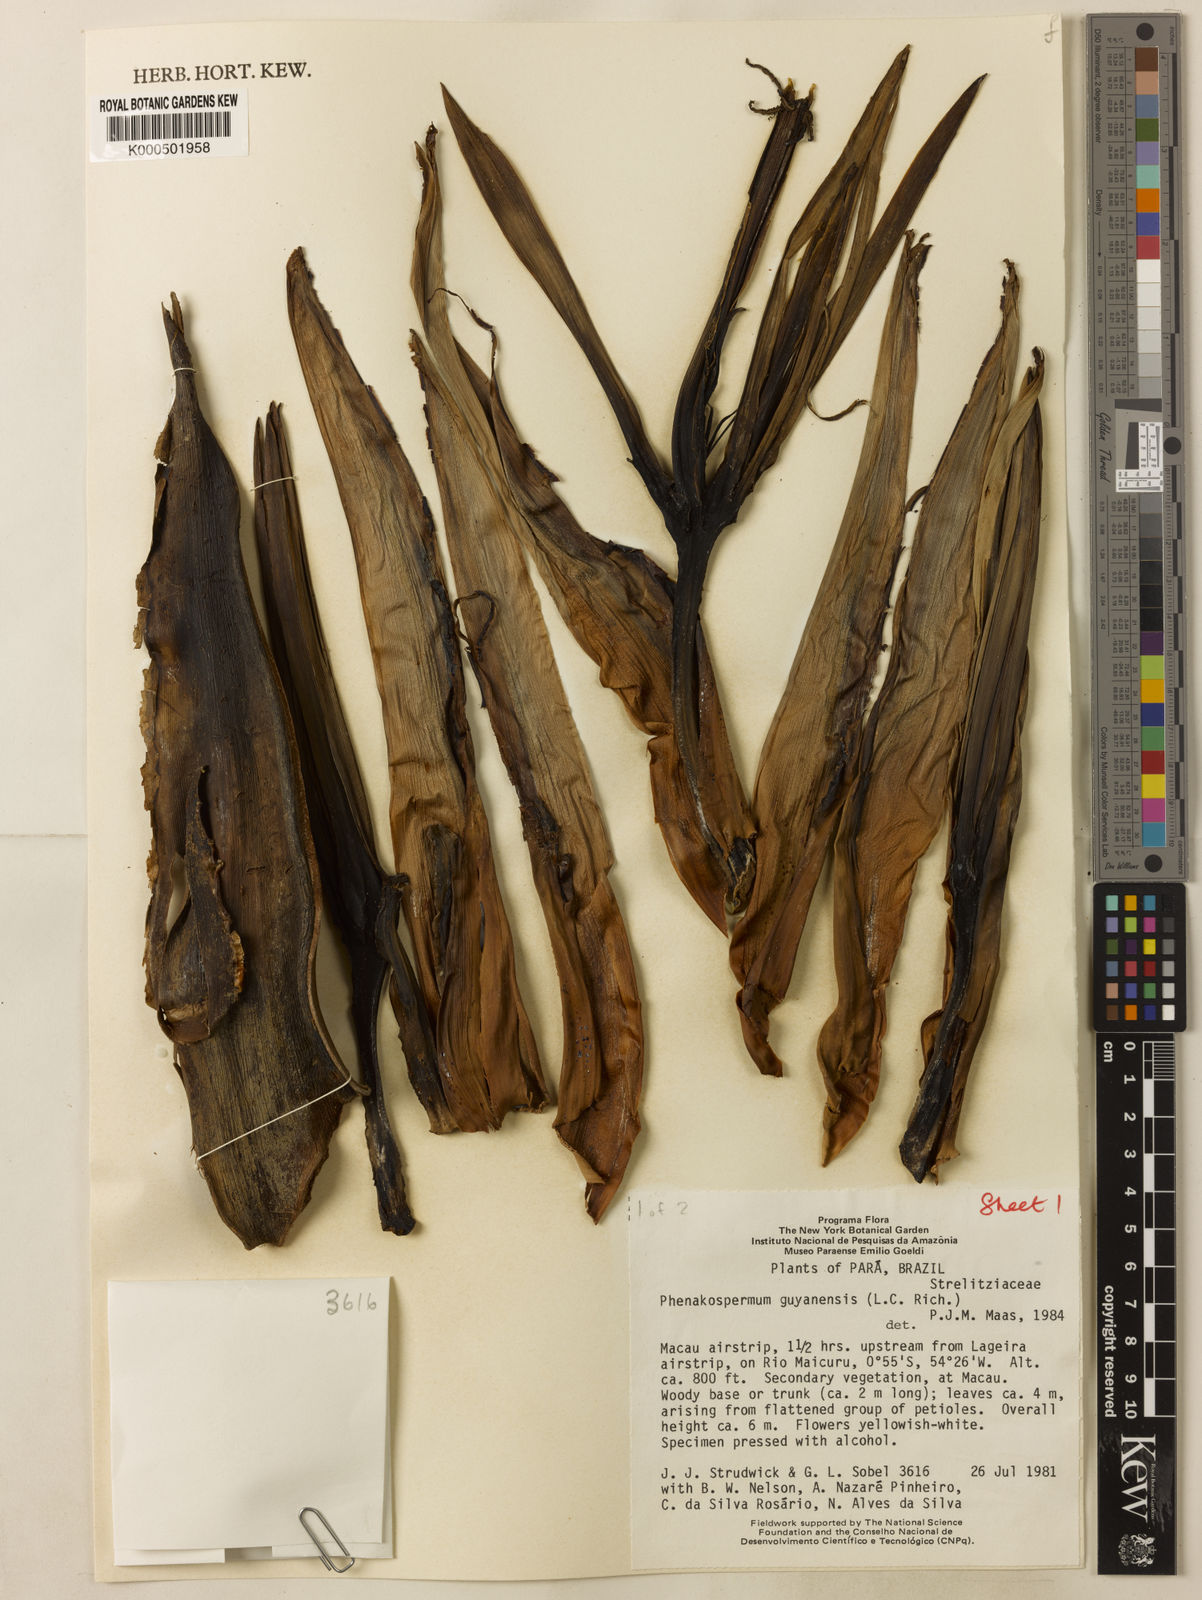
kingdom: Plantae
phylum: Tracheophyta
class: Liliopsida
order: Zingiberales
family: Strelitziaceae
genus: Phenakospermum
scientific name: Phenakospermum guyannense
